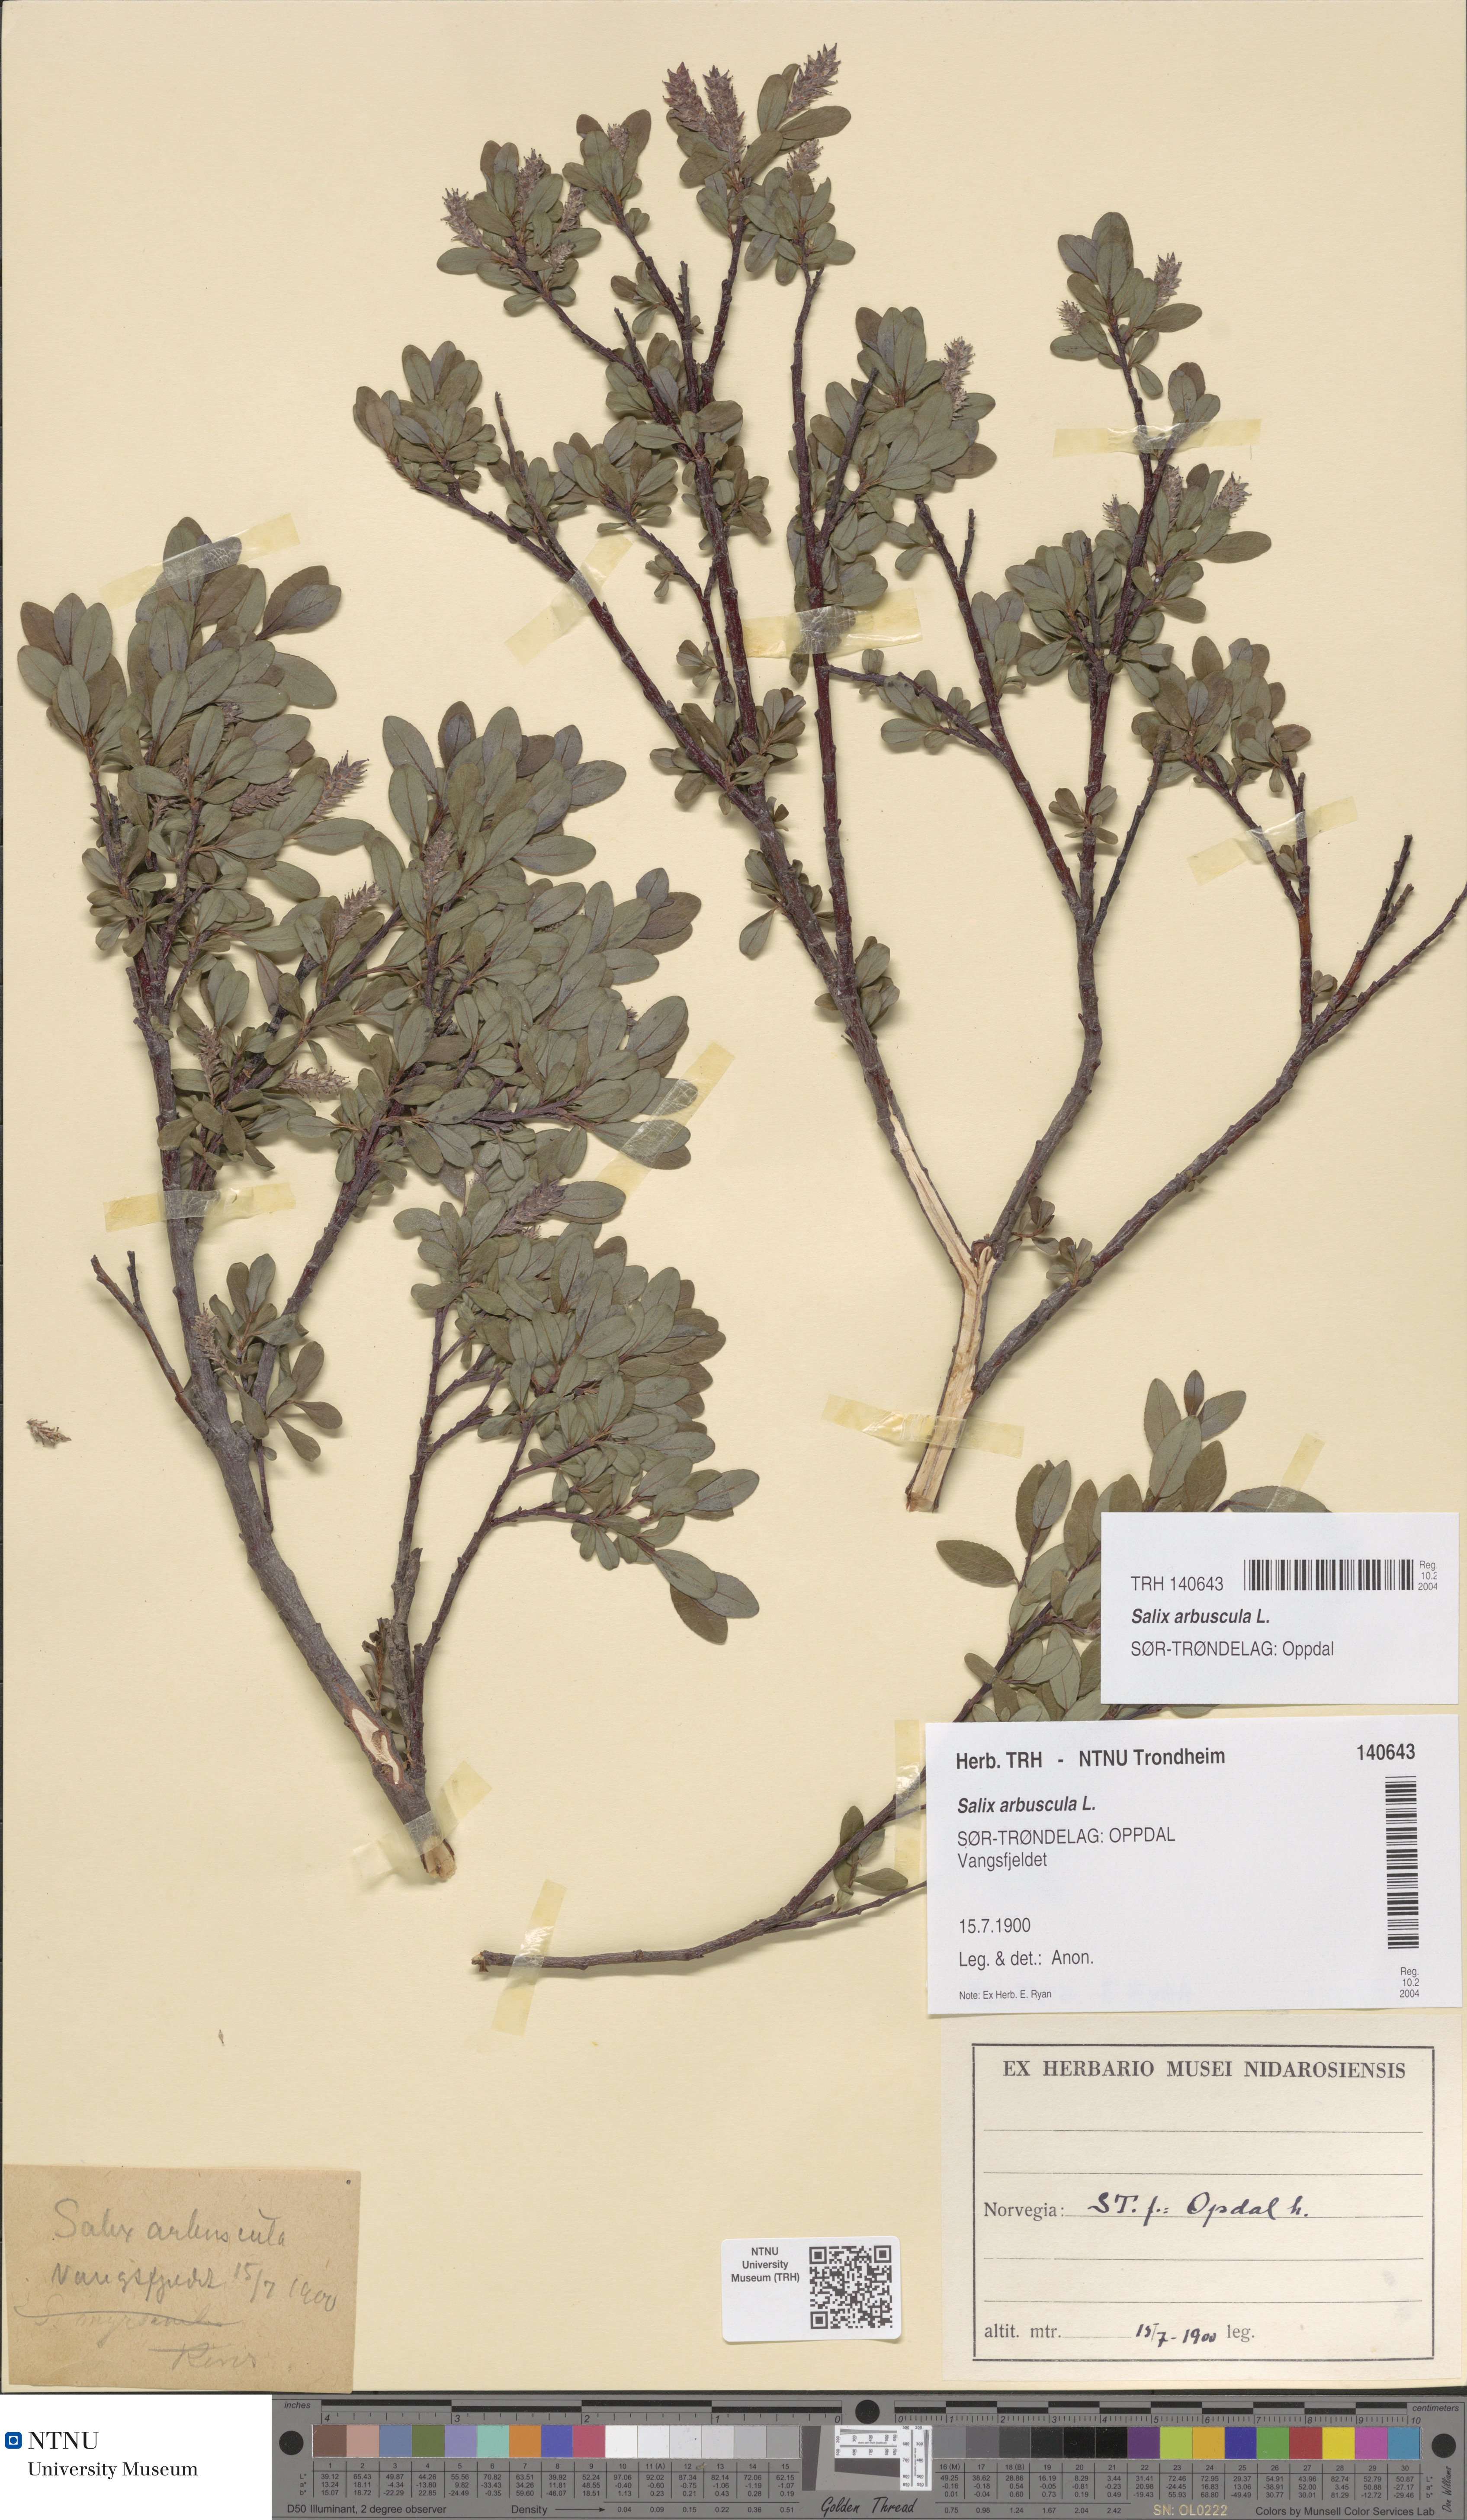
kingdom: Plantae
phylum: Tracheophyta
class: Magnoliopsida
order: Malpighiales
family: Salicaceae
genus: Salix
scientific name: Salix arbuscula
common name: Mountain willow
